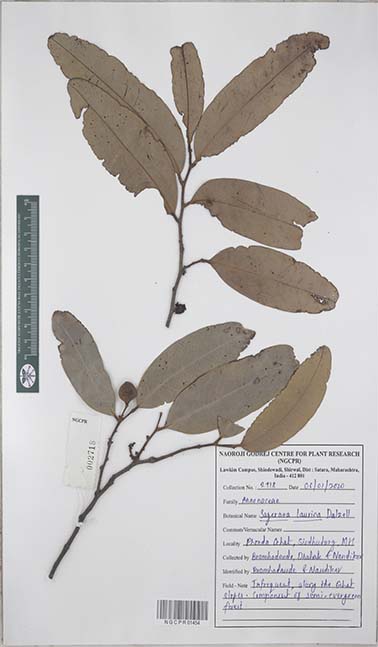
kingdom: Plantae
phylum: Tracheophyta
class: Magnoliopsida
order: Magnoliales
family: Annonaceae
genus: Sageraea
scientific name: Sageraea laurina
